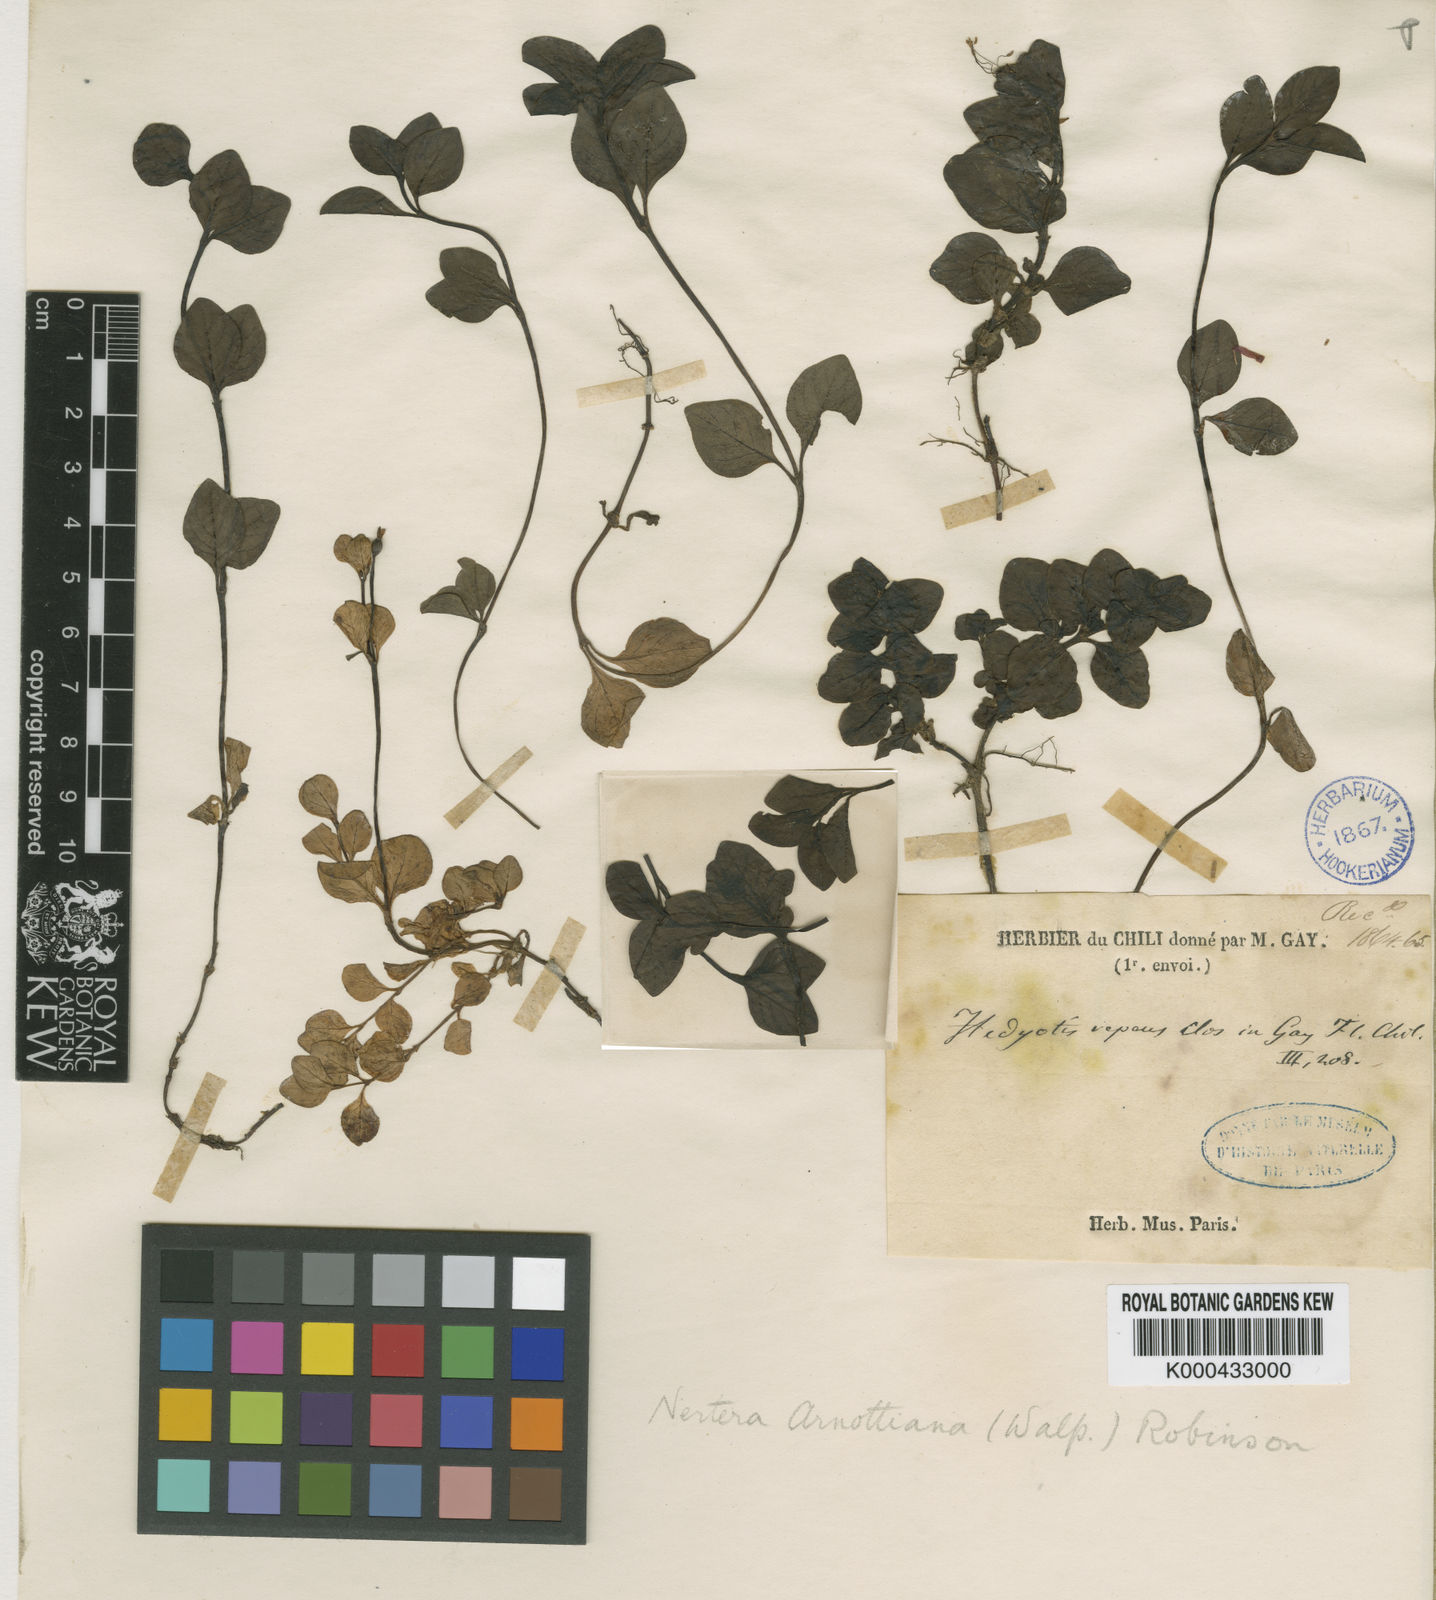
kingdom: Plantae
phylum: Tracheophyta
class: Magnoliopsida
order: Gentianales
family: Rubiaceae
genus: Leptostigma
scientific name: Leptostigma arnottianum
